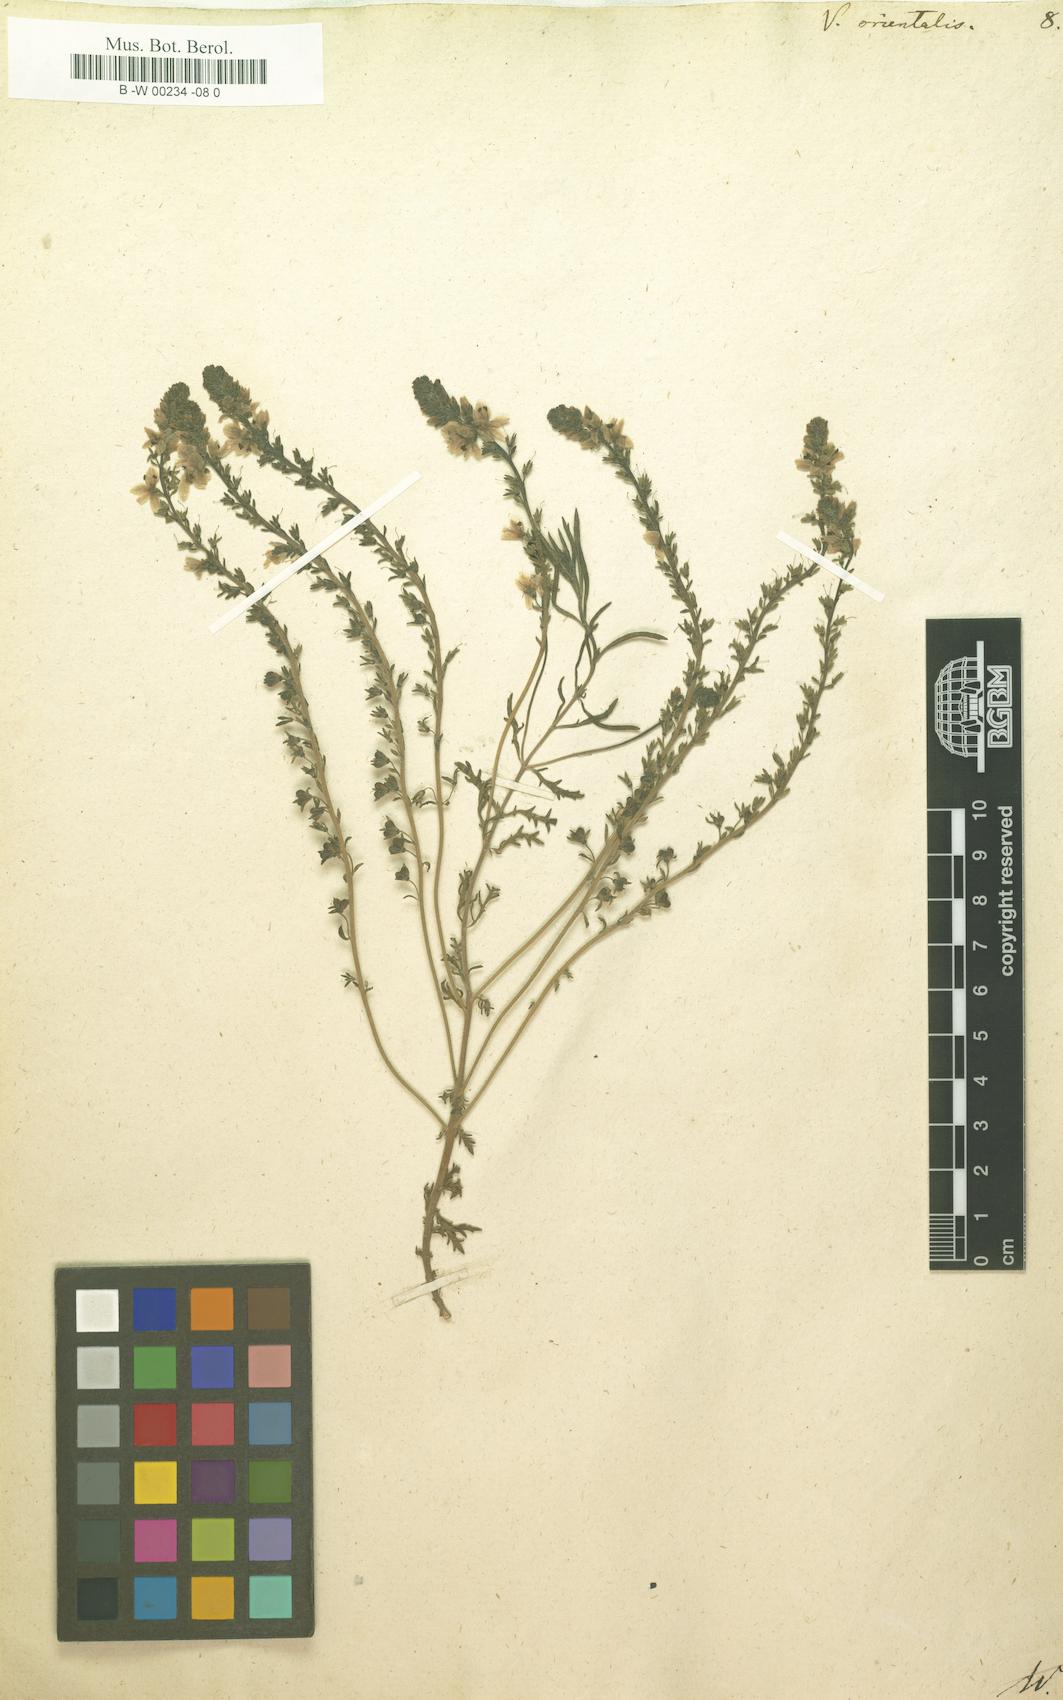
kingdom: Plantae
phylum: Tracheophyta
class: Magnoliopsida
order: Lamiales
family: Plantaginaceae
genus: Veronica
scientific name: Veronica orientalis
